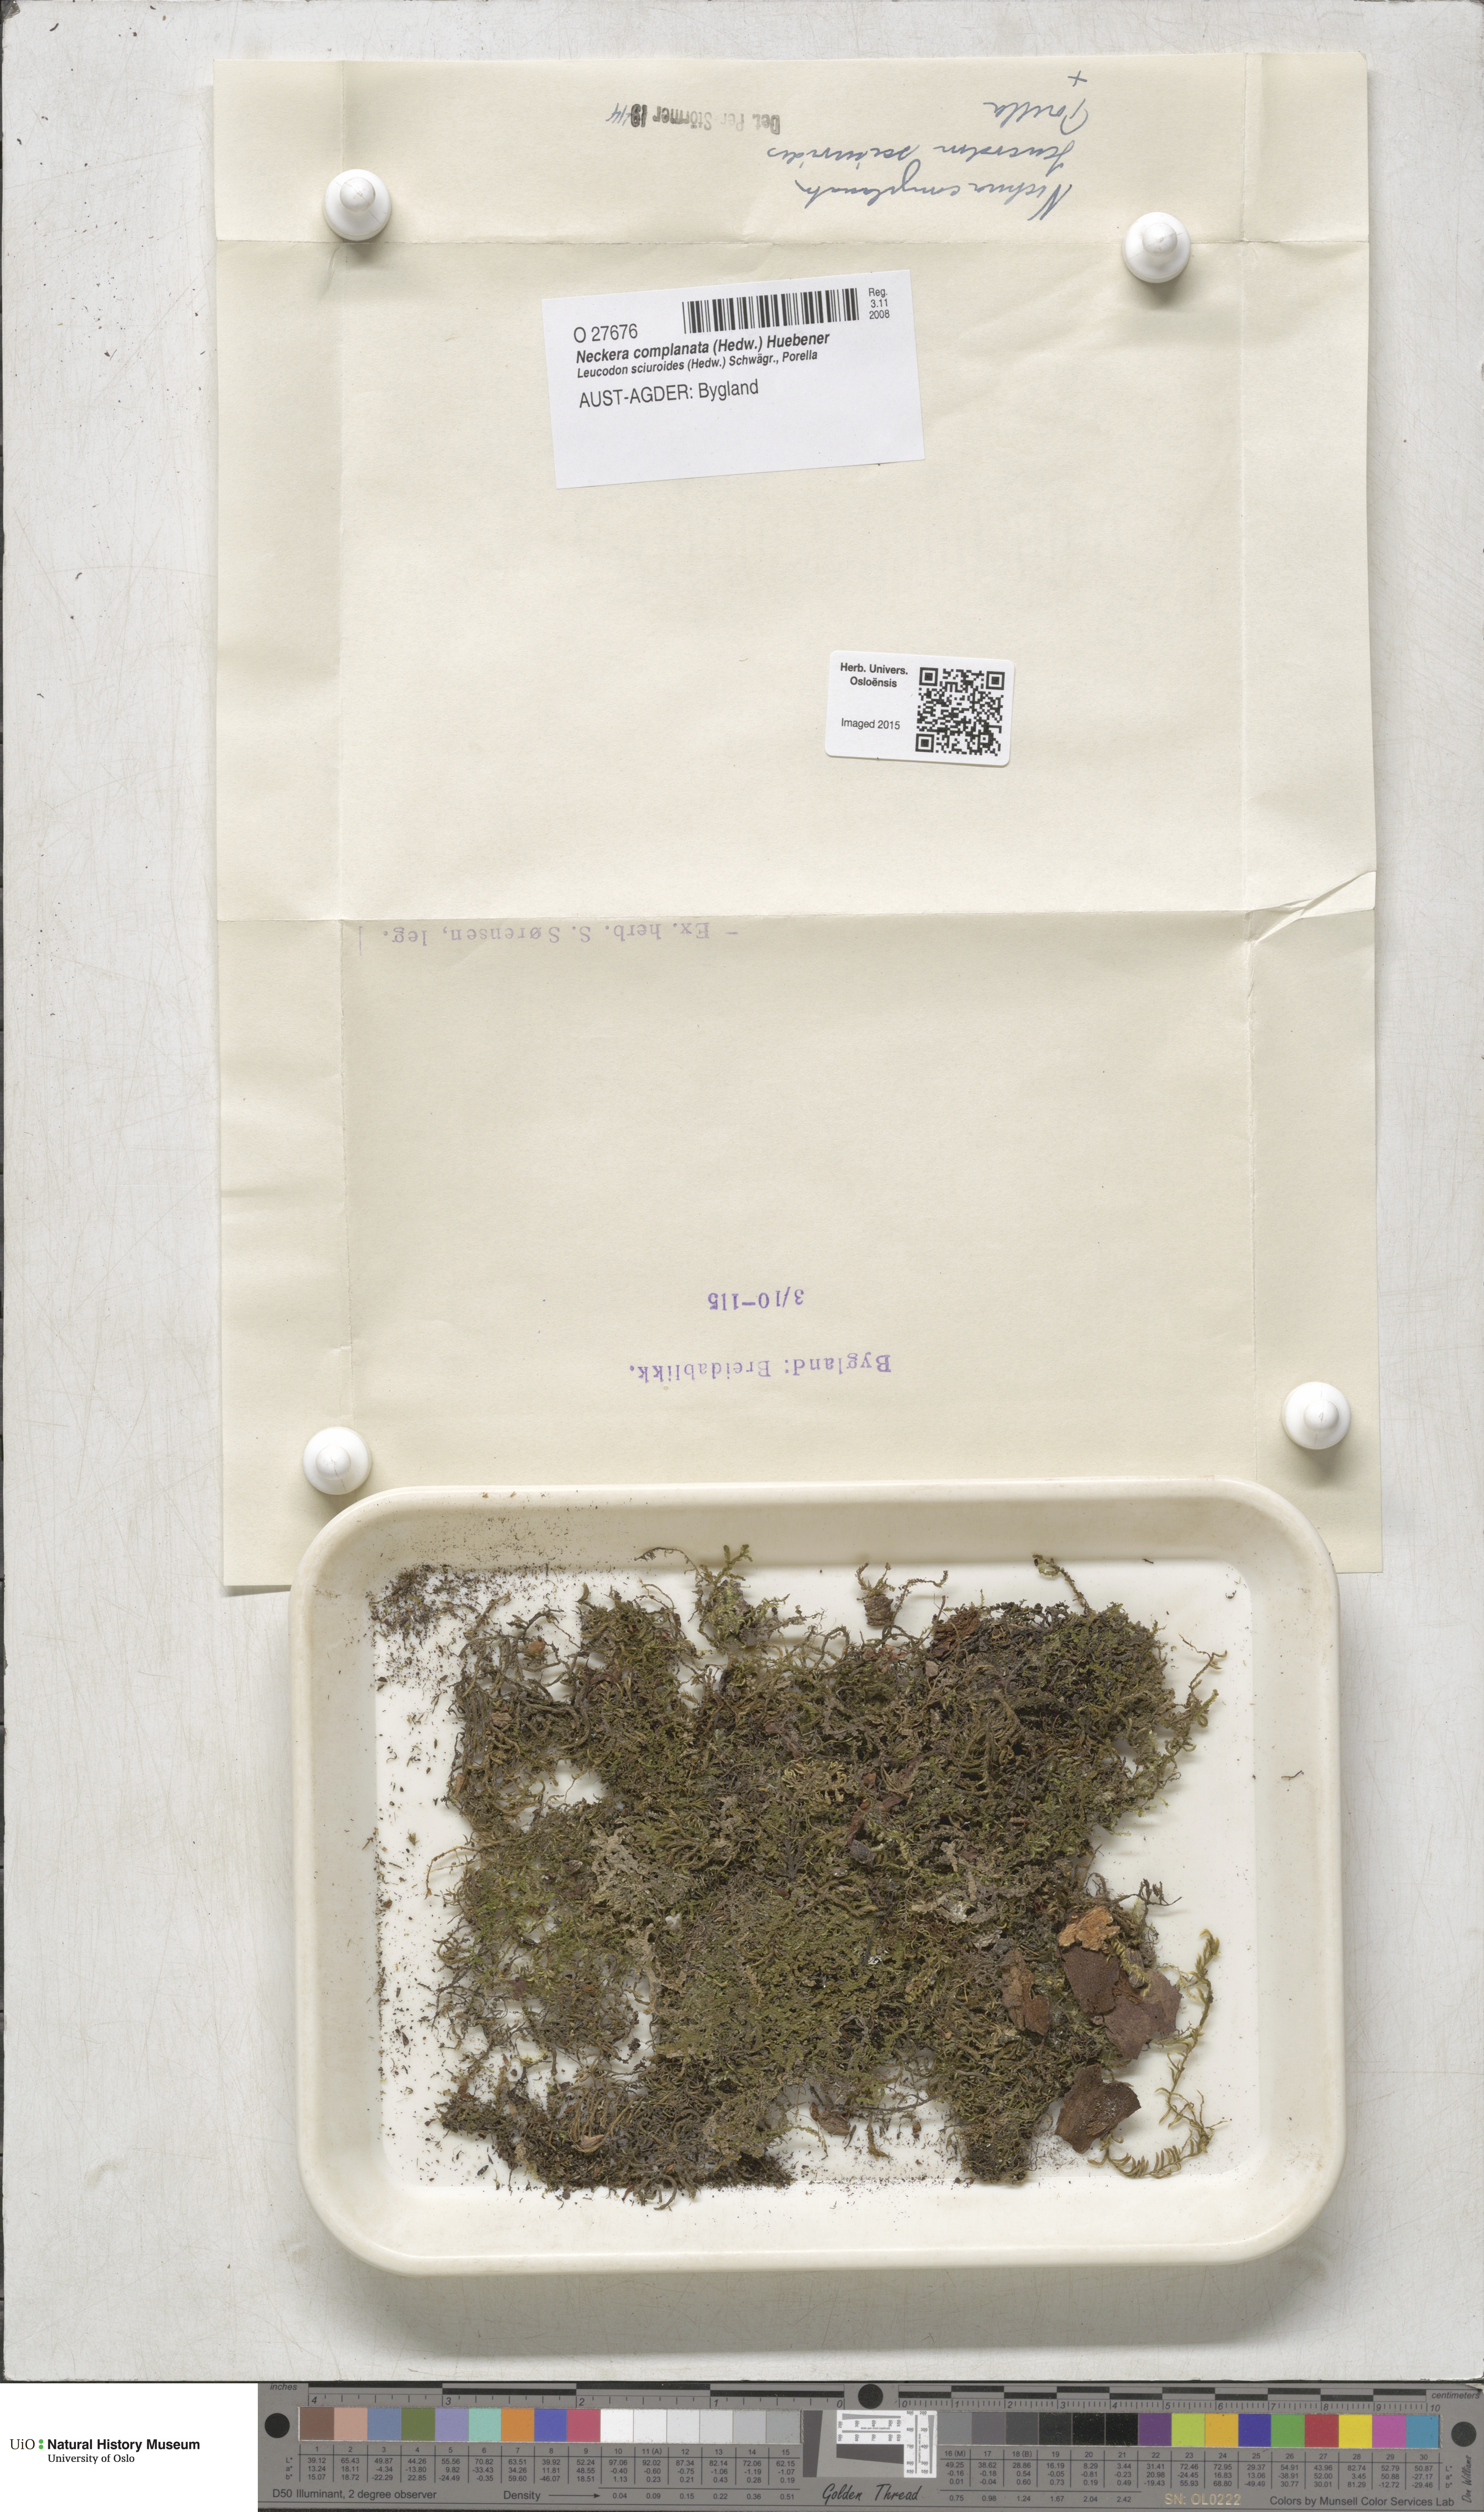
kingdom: Plantae
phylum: Bryophyta
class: Bryopsida
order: Hypnales
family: Neckeraceae
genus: Alleniella
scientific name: Alleniella complanata
